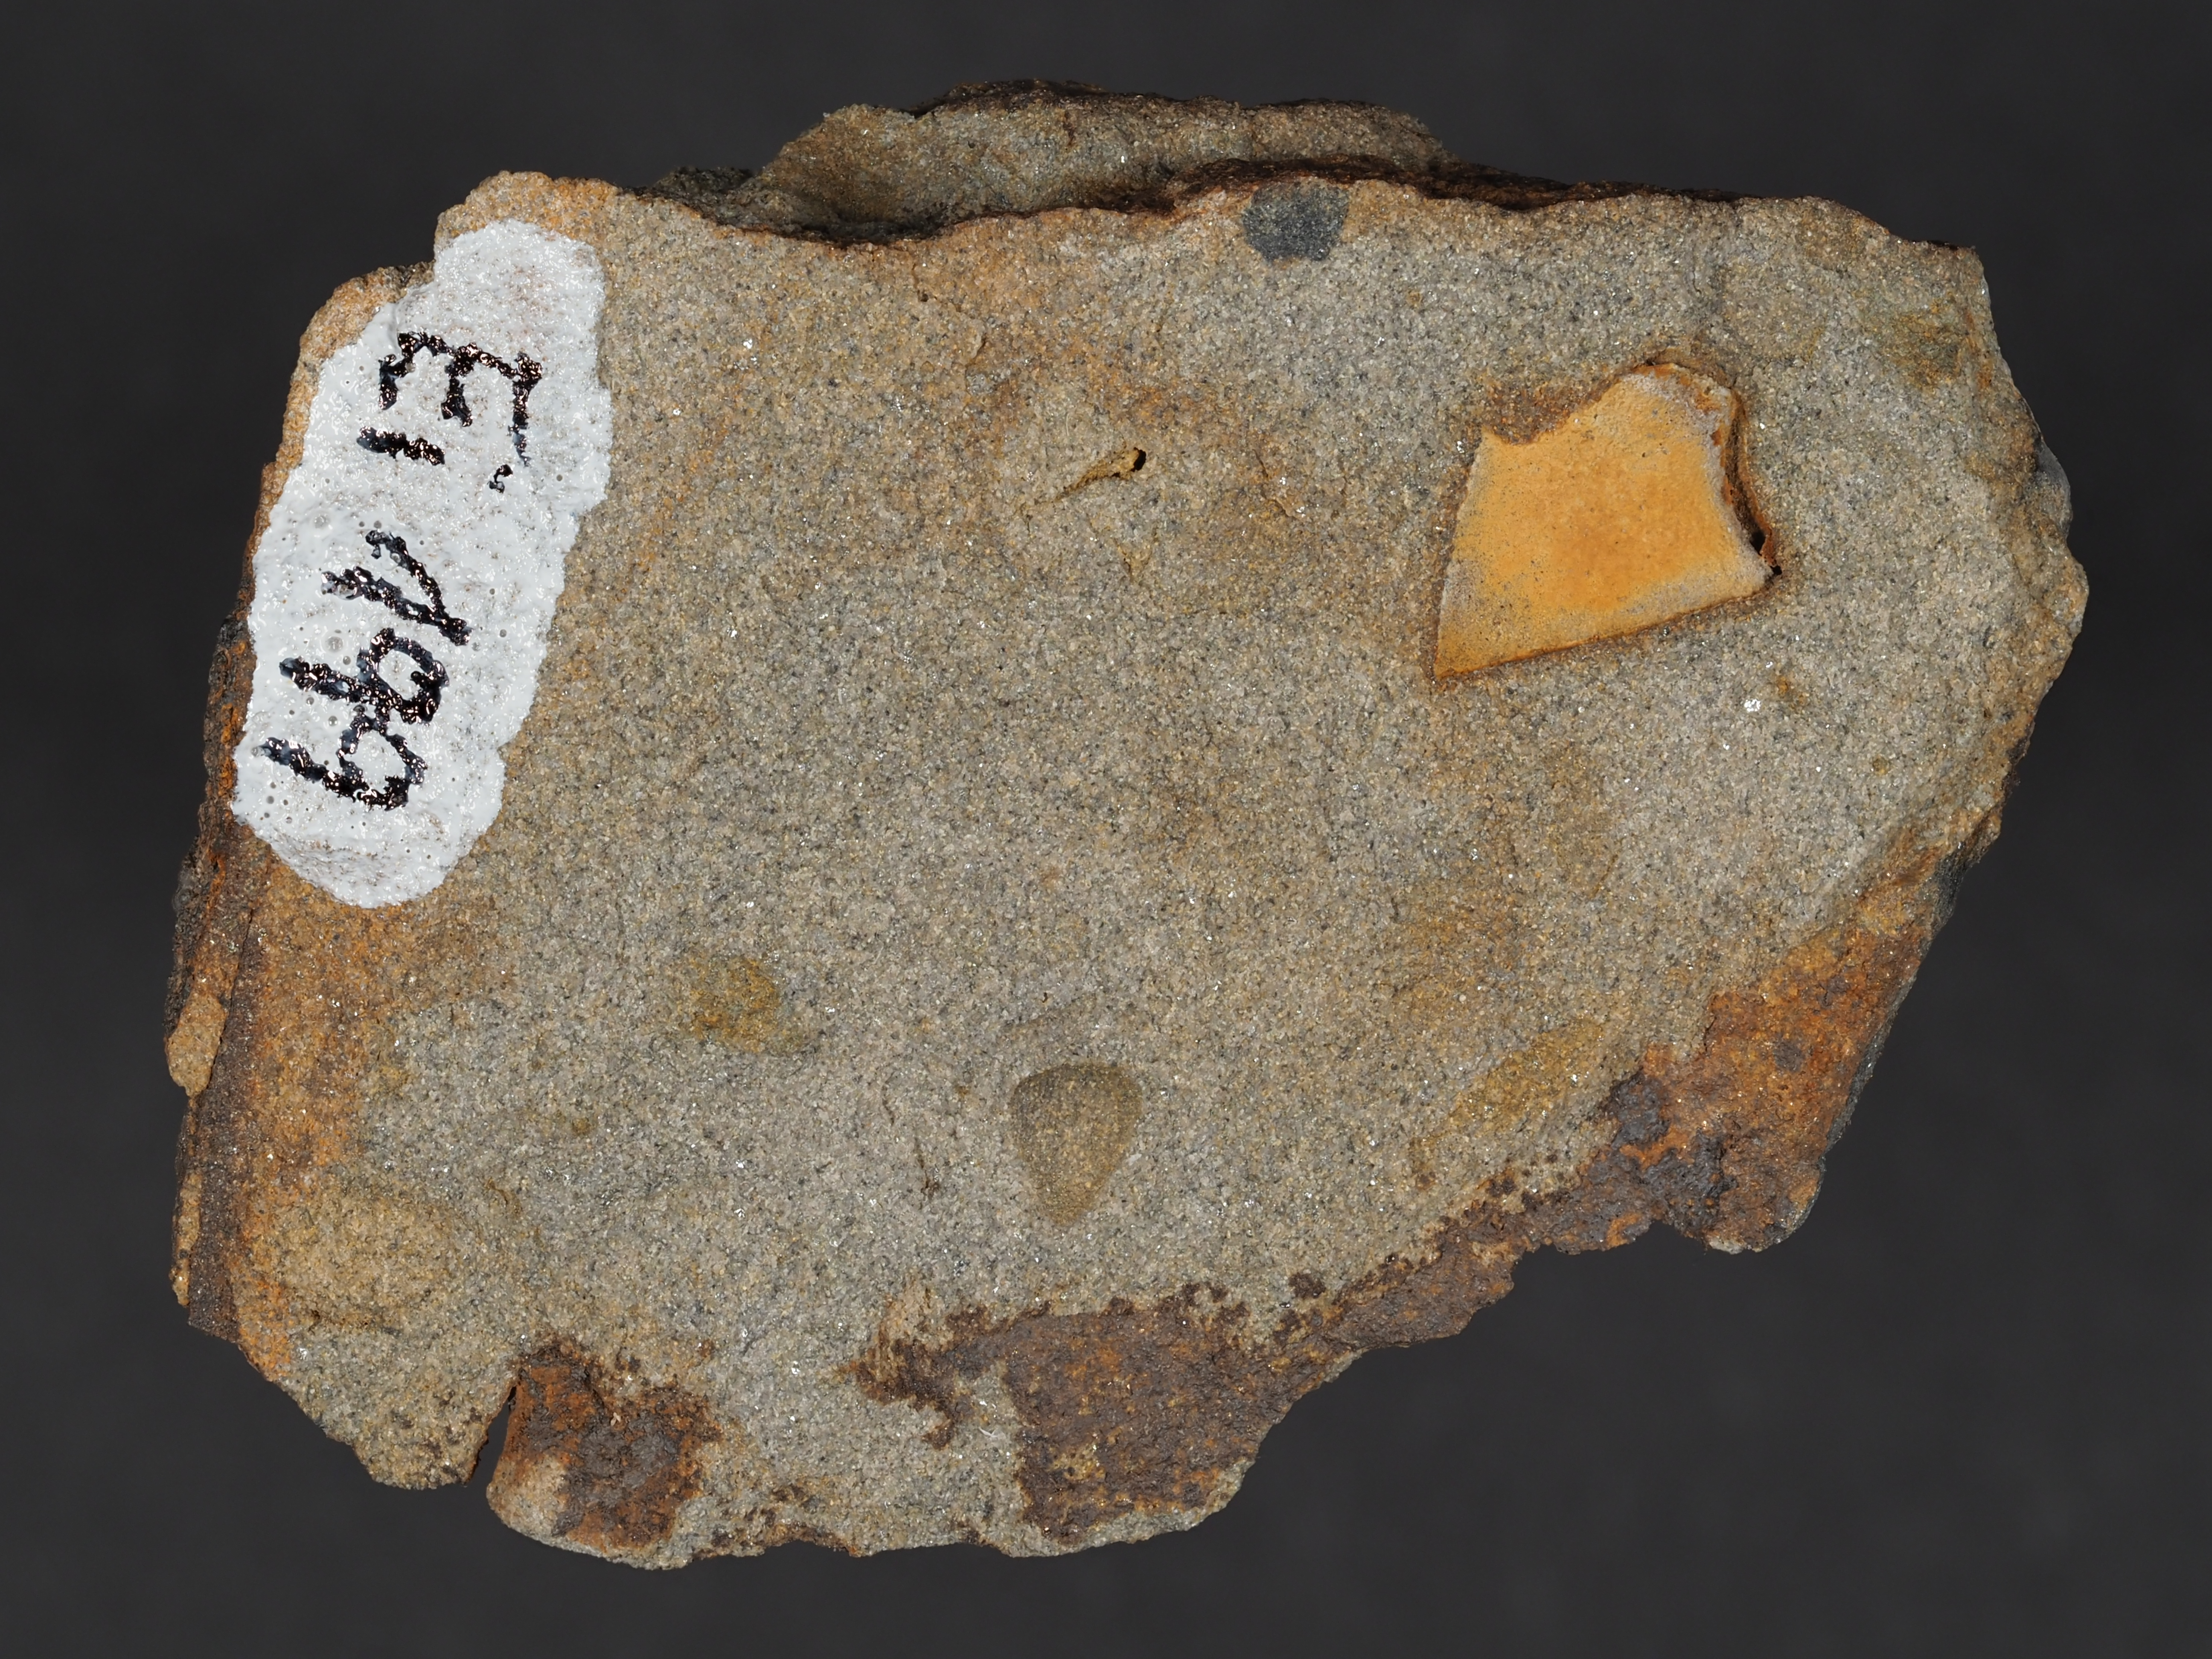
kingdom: Animalia
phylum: Echinodermata
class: Crinoidea
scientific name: Crinoidea
